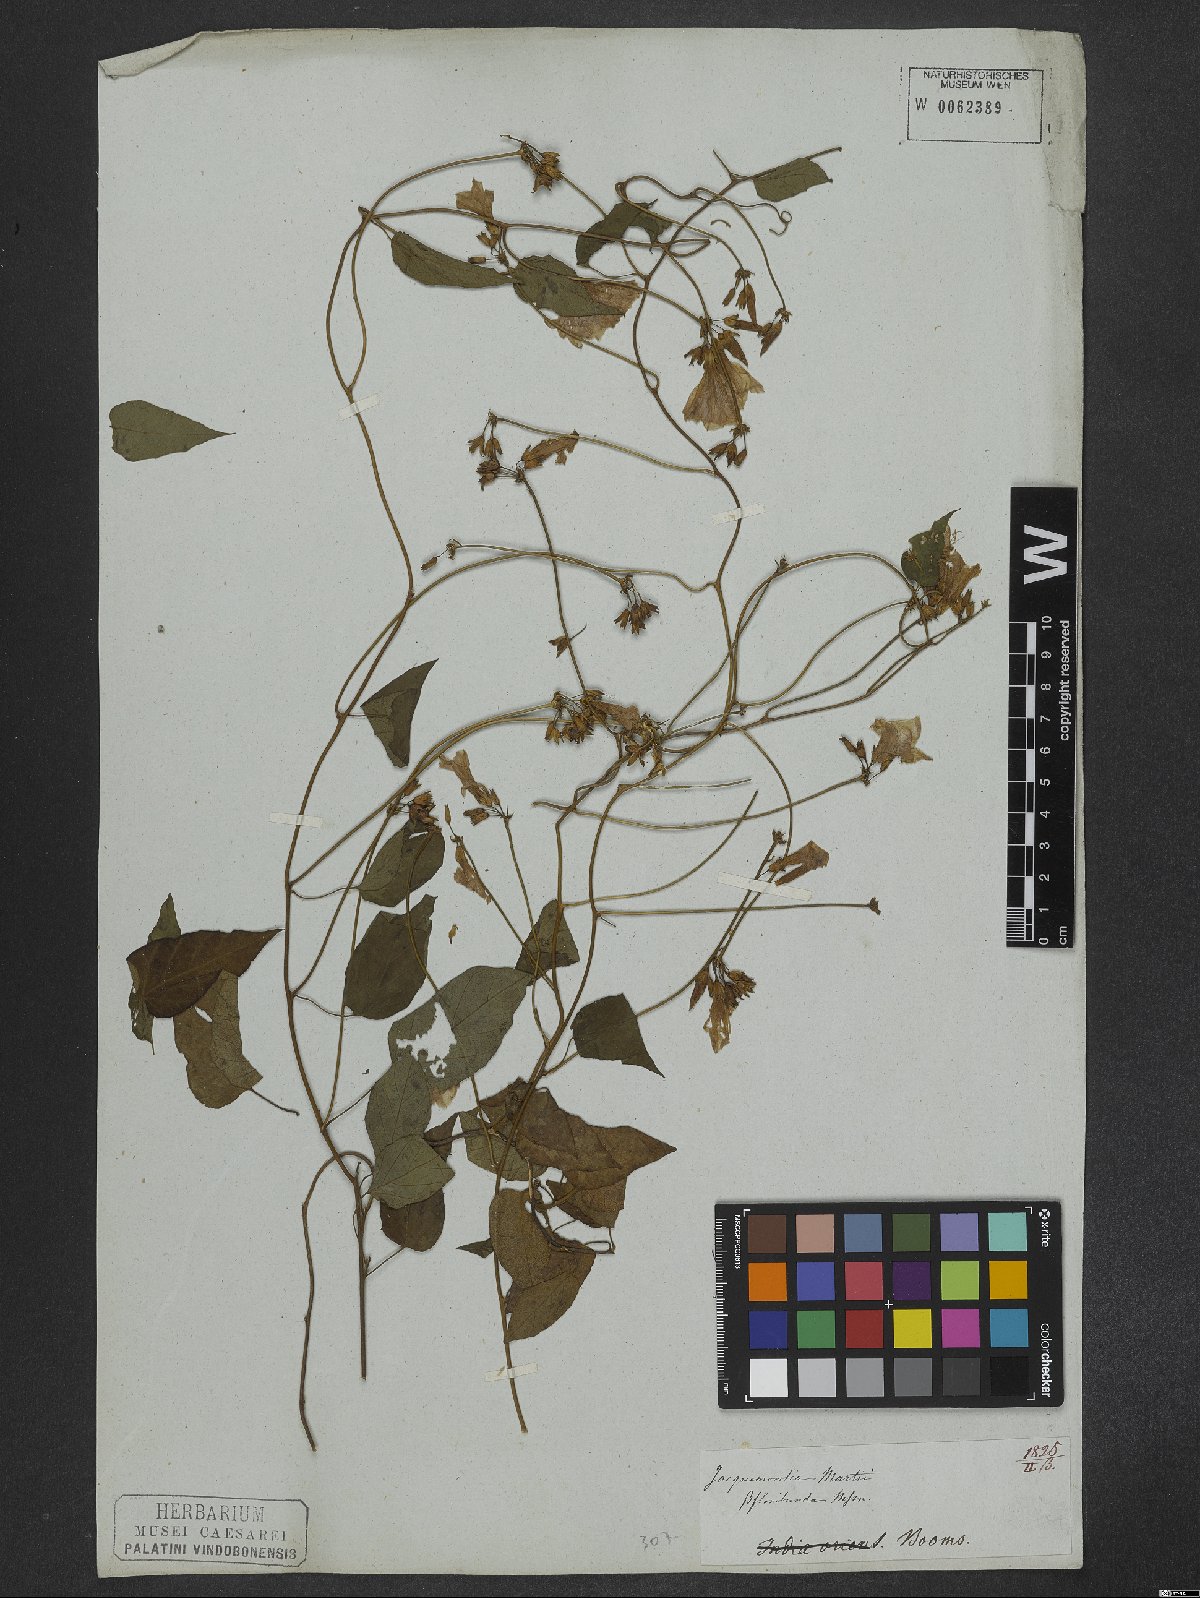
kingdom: Plantae
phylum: Tracheophyta
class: Magnoliopsida
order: Solanales
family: Convolvulaceae
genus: Jacquemontia
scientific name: Jacquemontia martii
